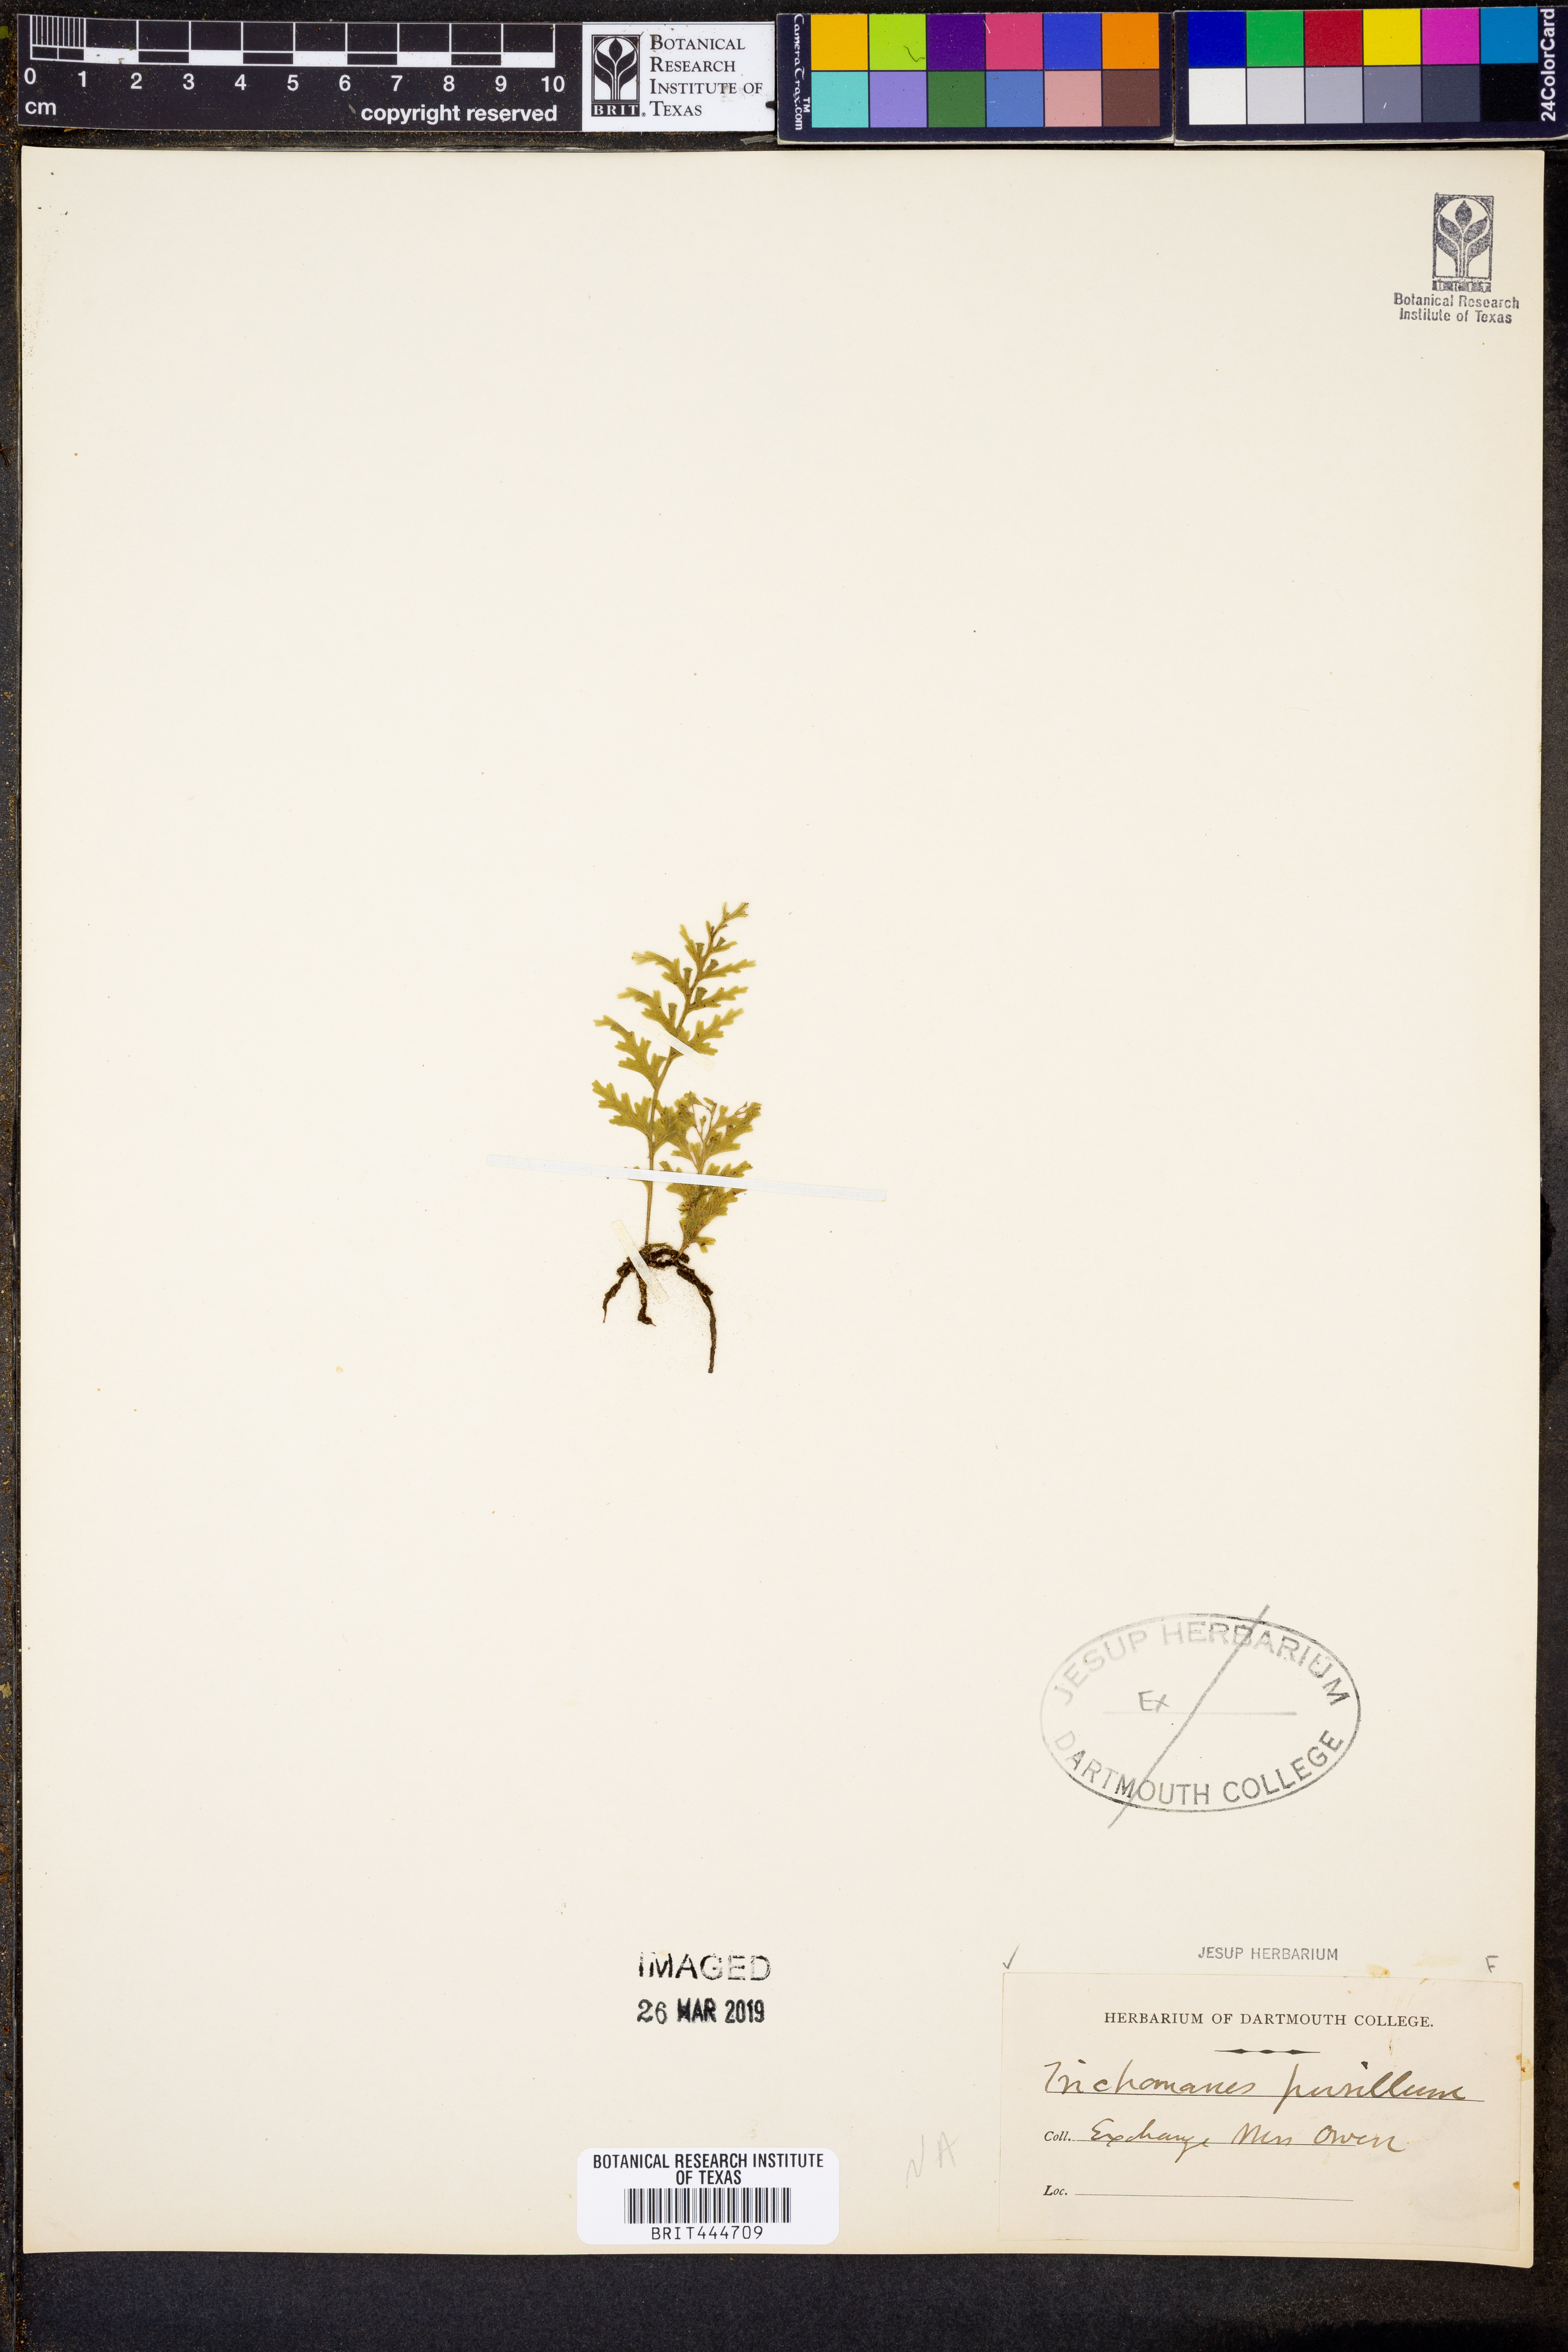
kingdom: Plantae
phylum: Tracheophyta
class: Polypodiopsida
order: Hymenophyllales
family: Hymenophyllaceae
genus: Didymoglossum
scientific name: Didymoglossum pusillum
